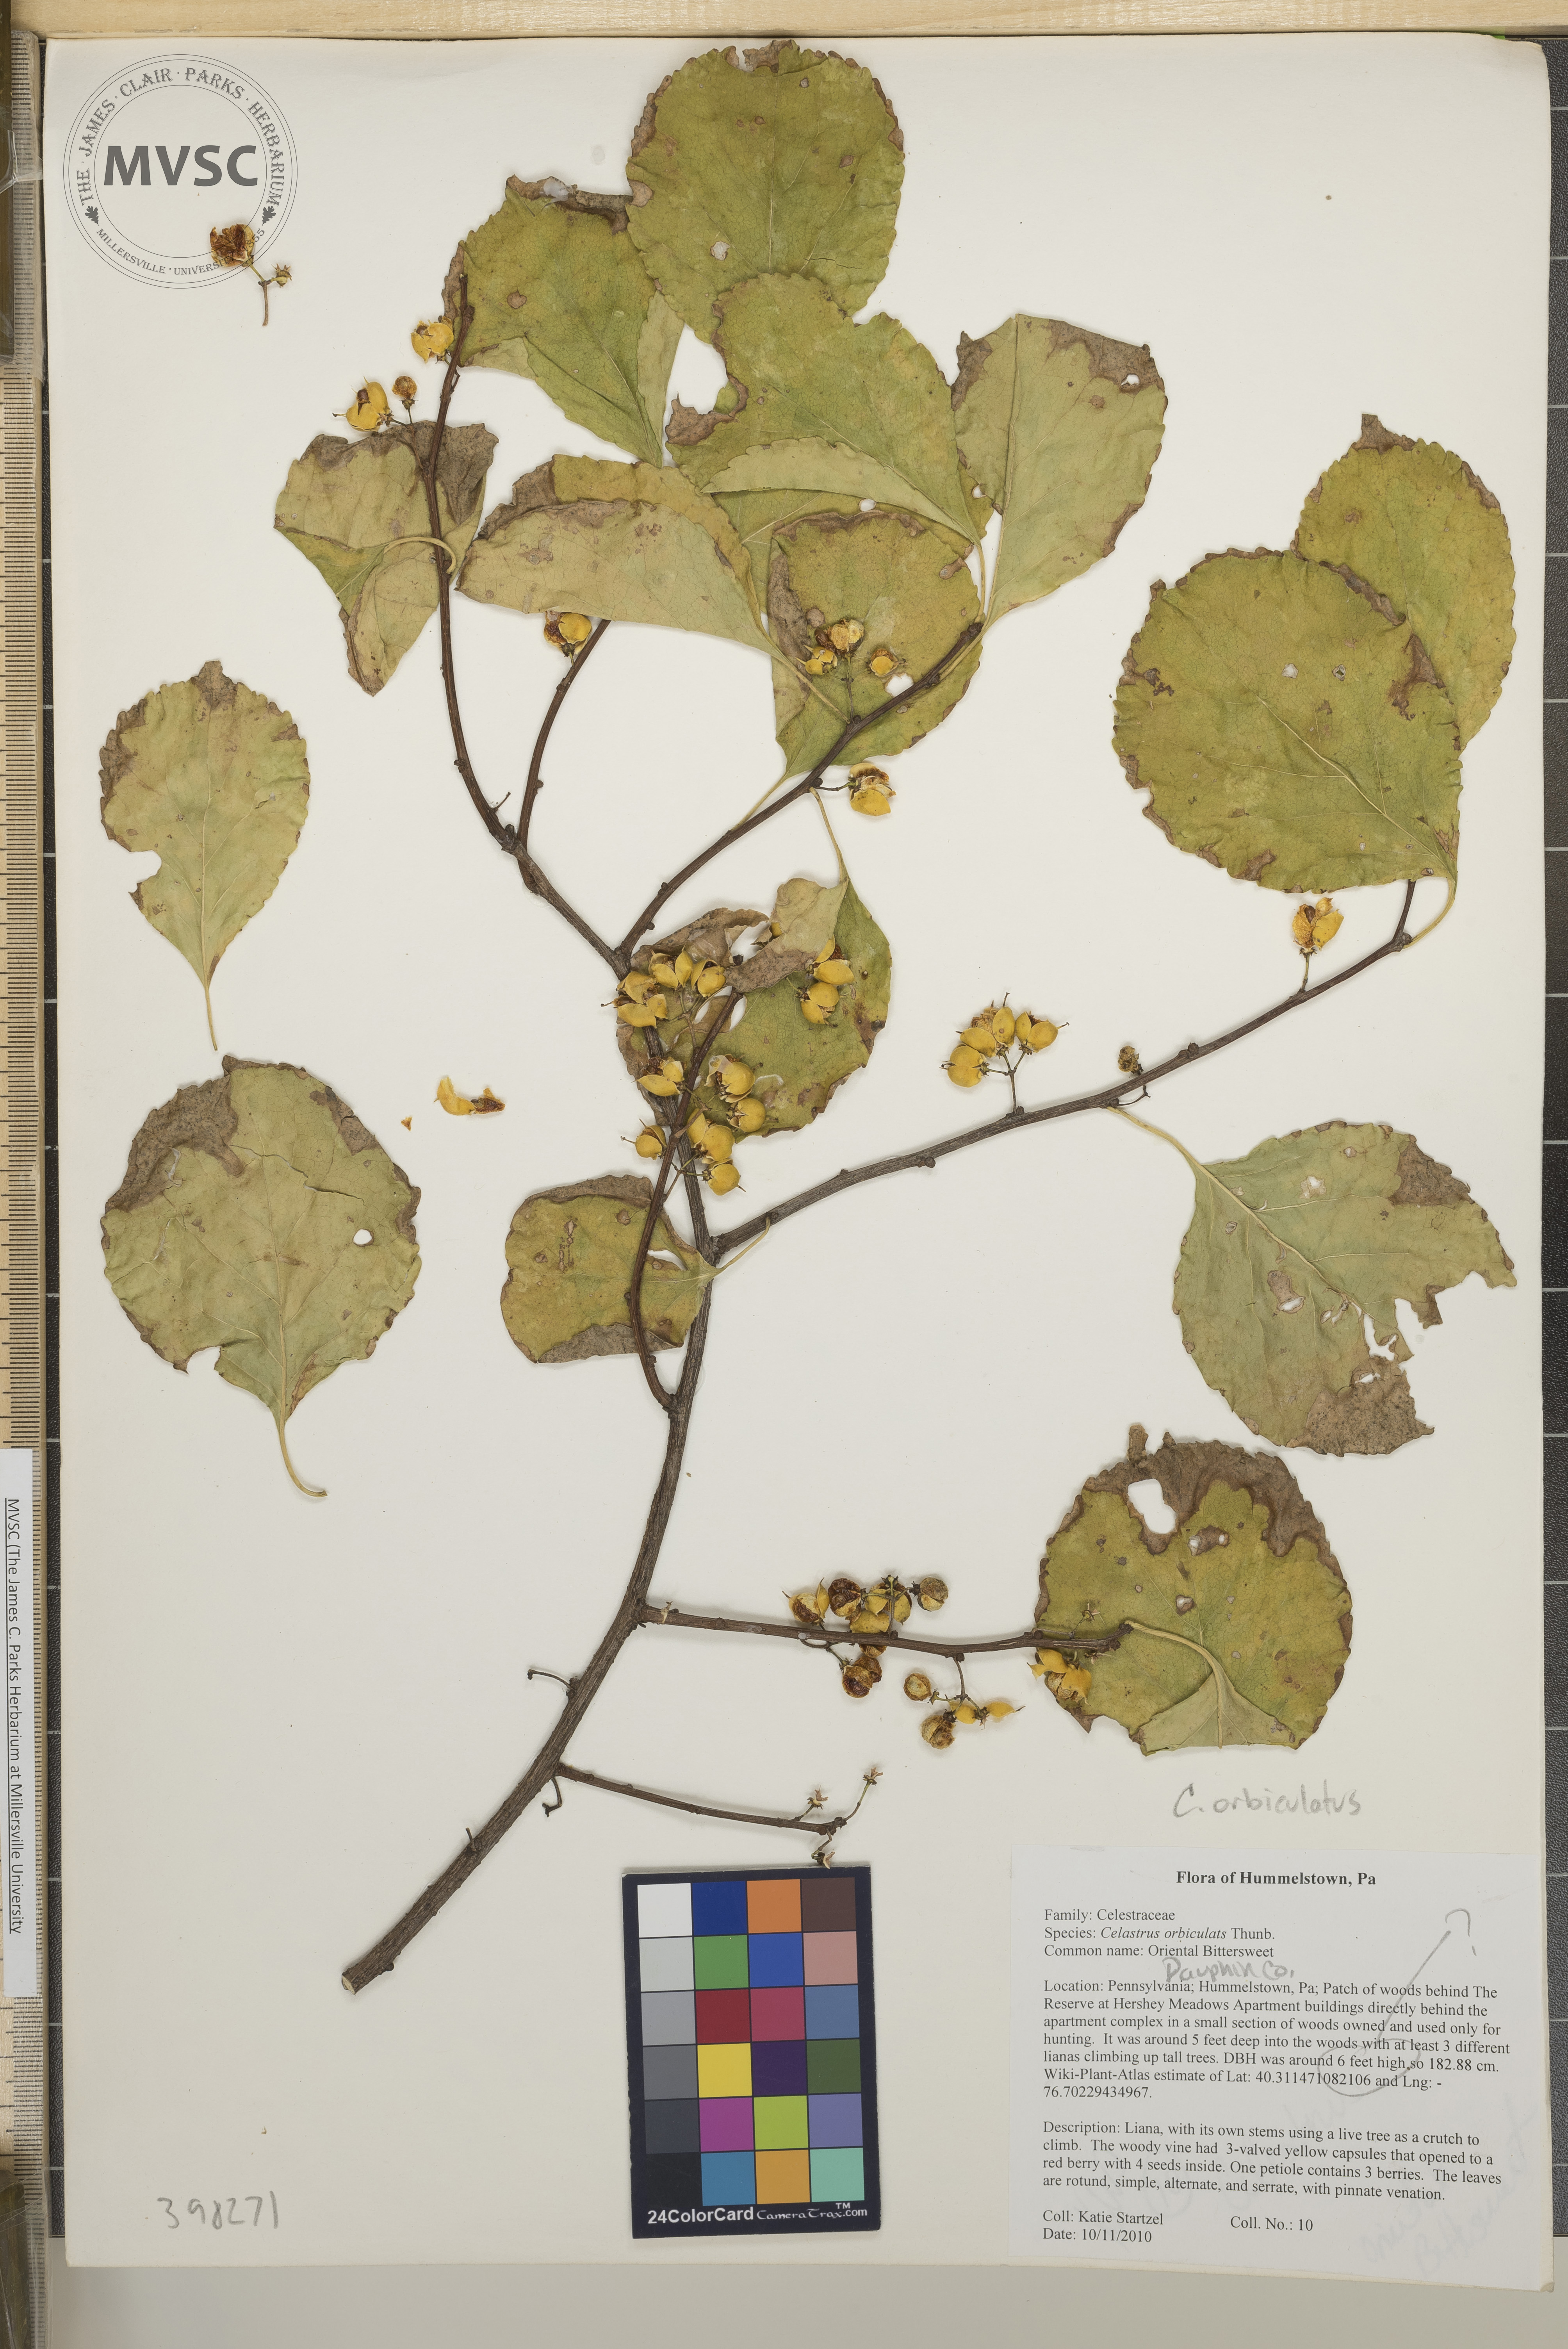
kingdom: Plantae
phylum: Tracheophyta
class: Magnoliopsida
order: Celastrales
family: Celastraceae
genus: Celastrus
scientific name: Celastrus orbiculatus
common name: Oriental bittersweet
